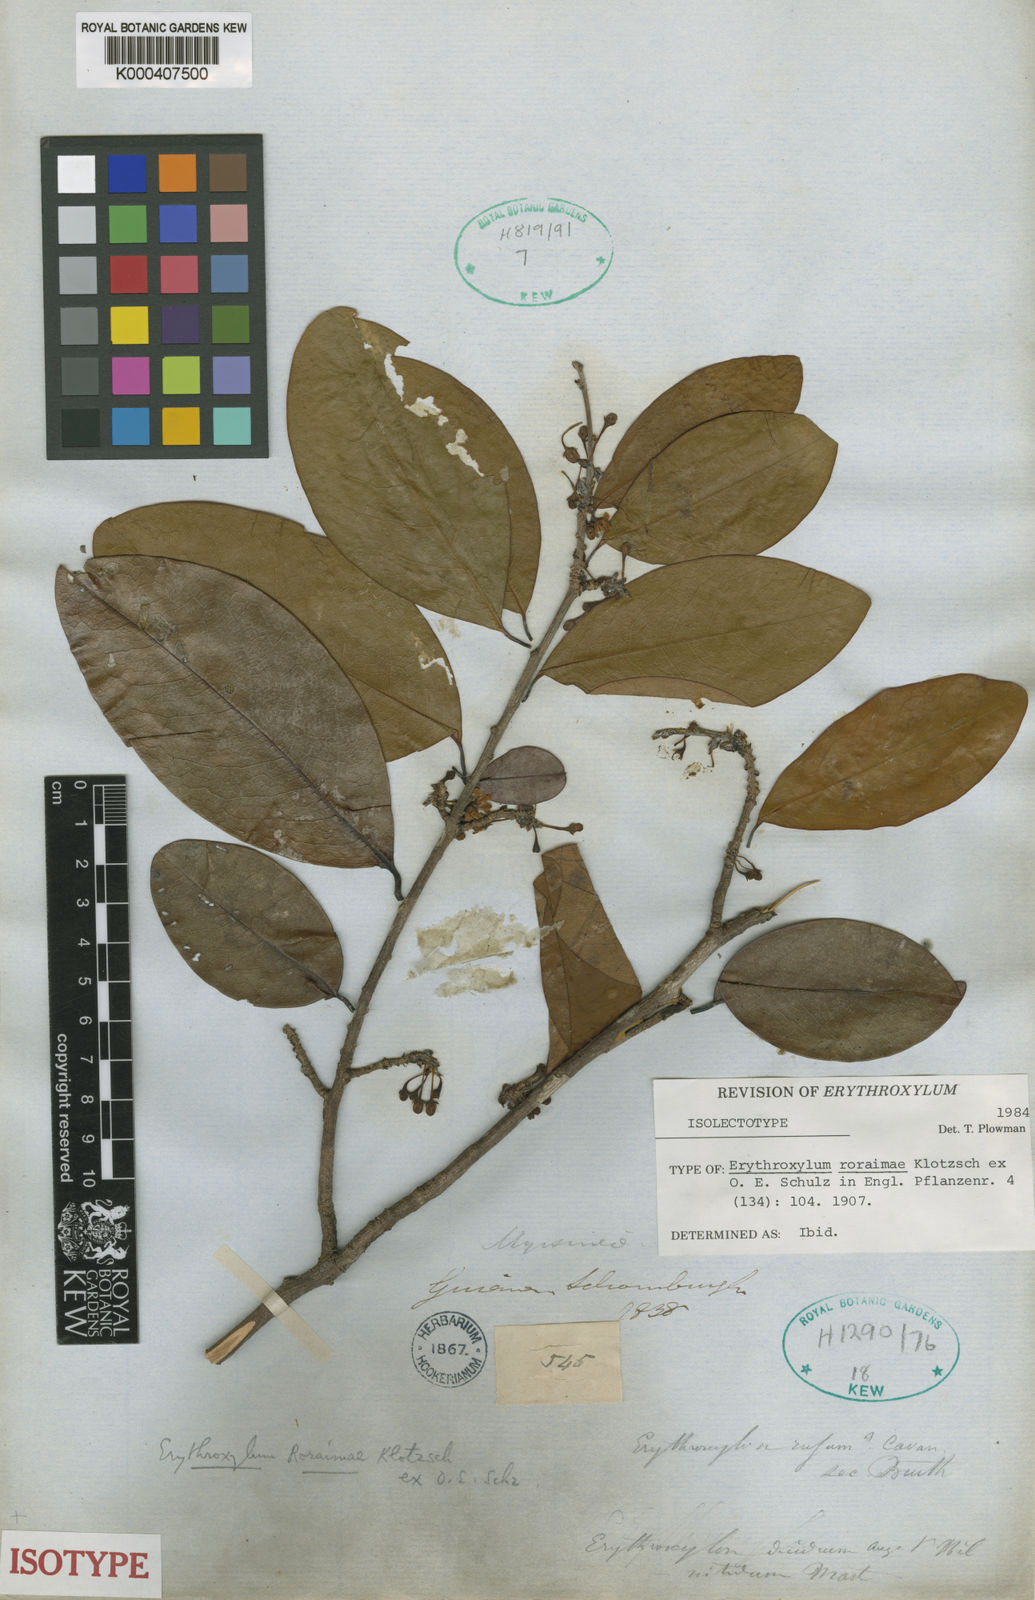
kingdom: Plantae
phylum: Tracheophyta
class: Magnoliopsida
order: Malpighiales
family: Erythroxylaceae
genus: Erythroxylum
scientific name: Erythroxylum roraimae
